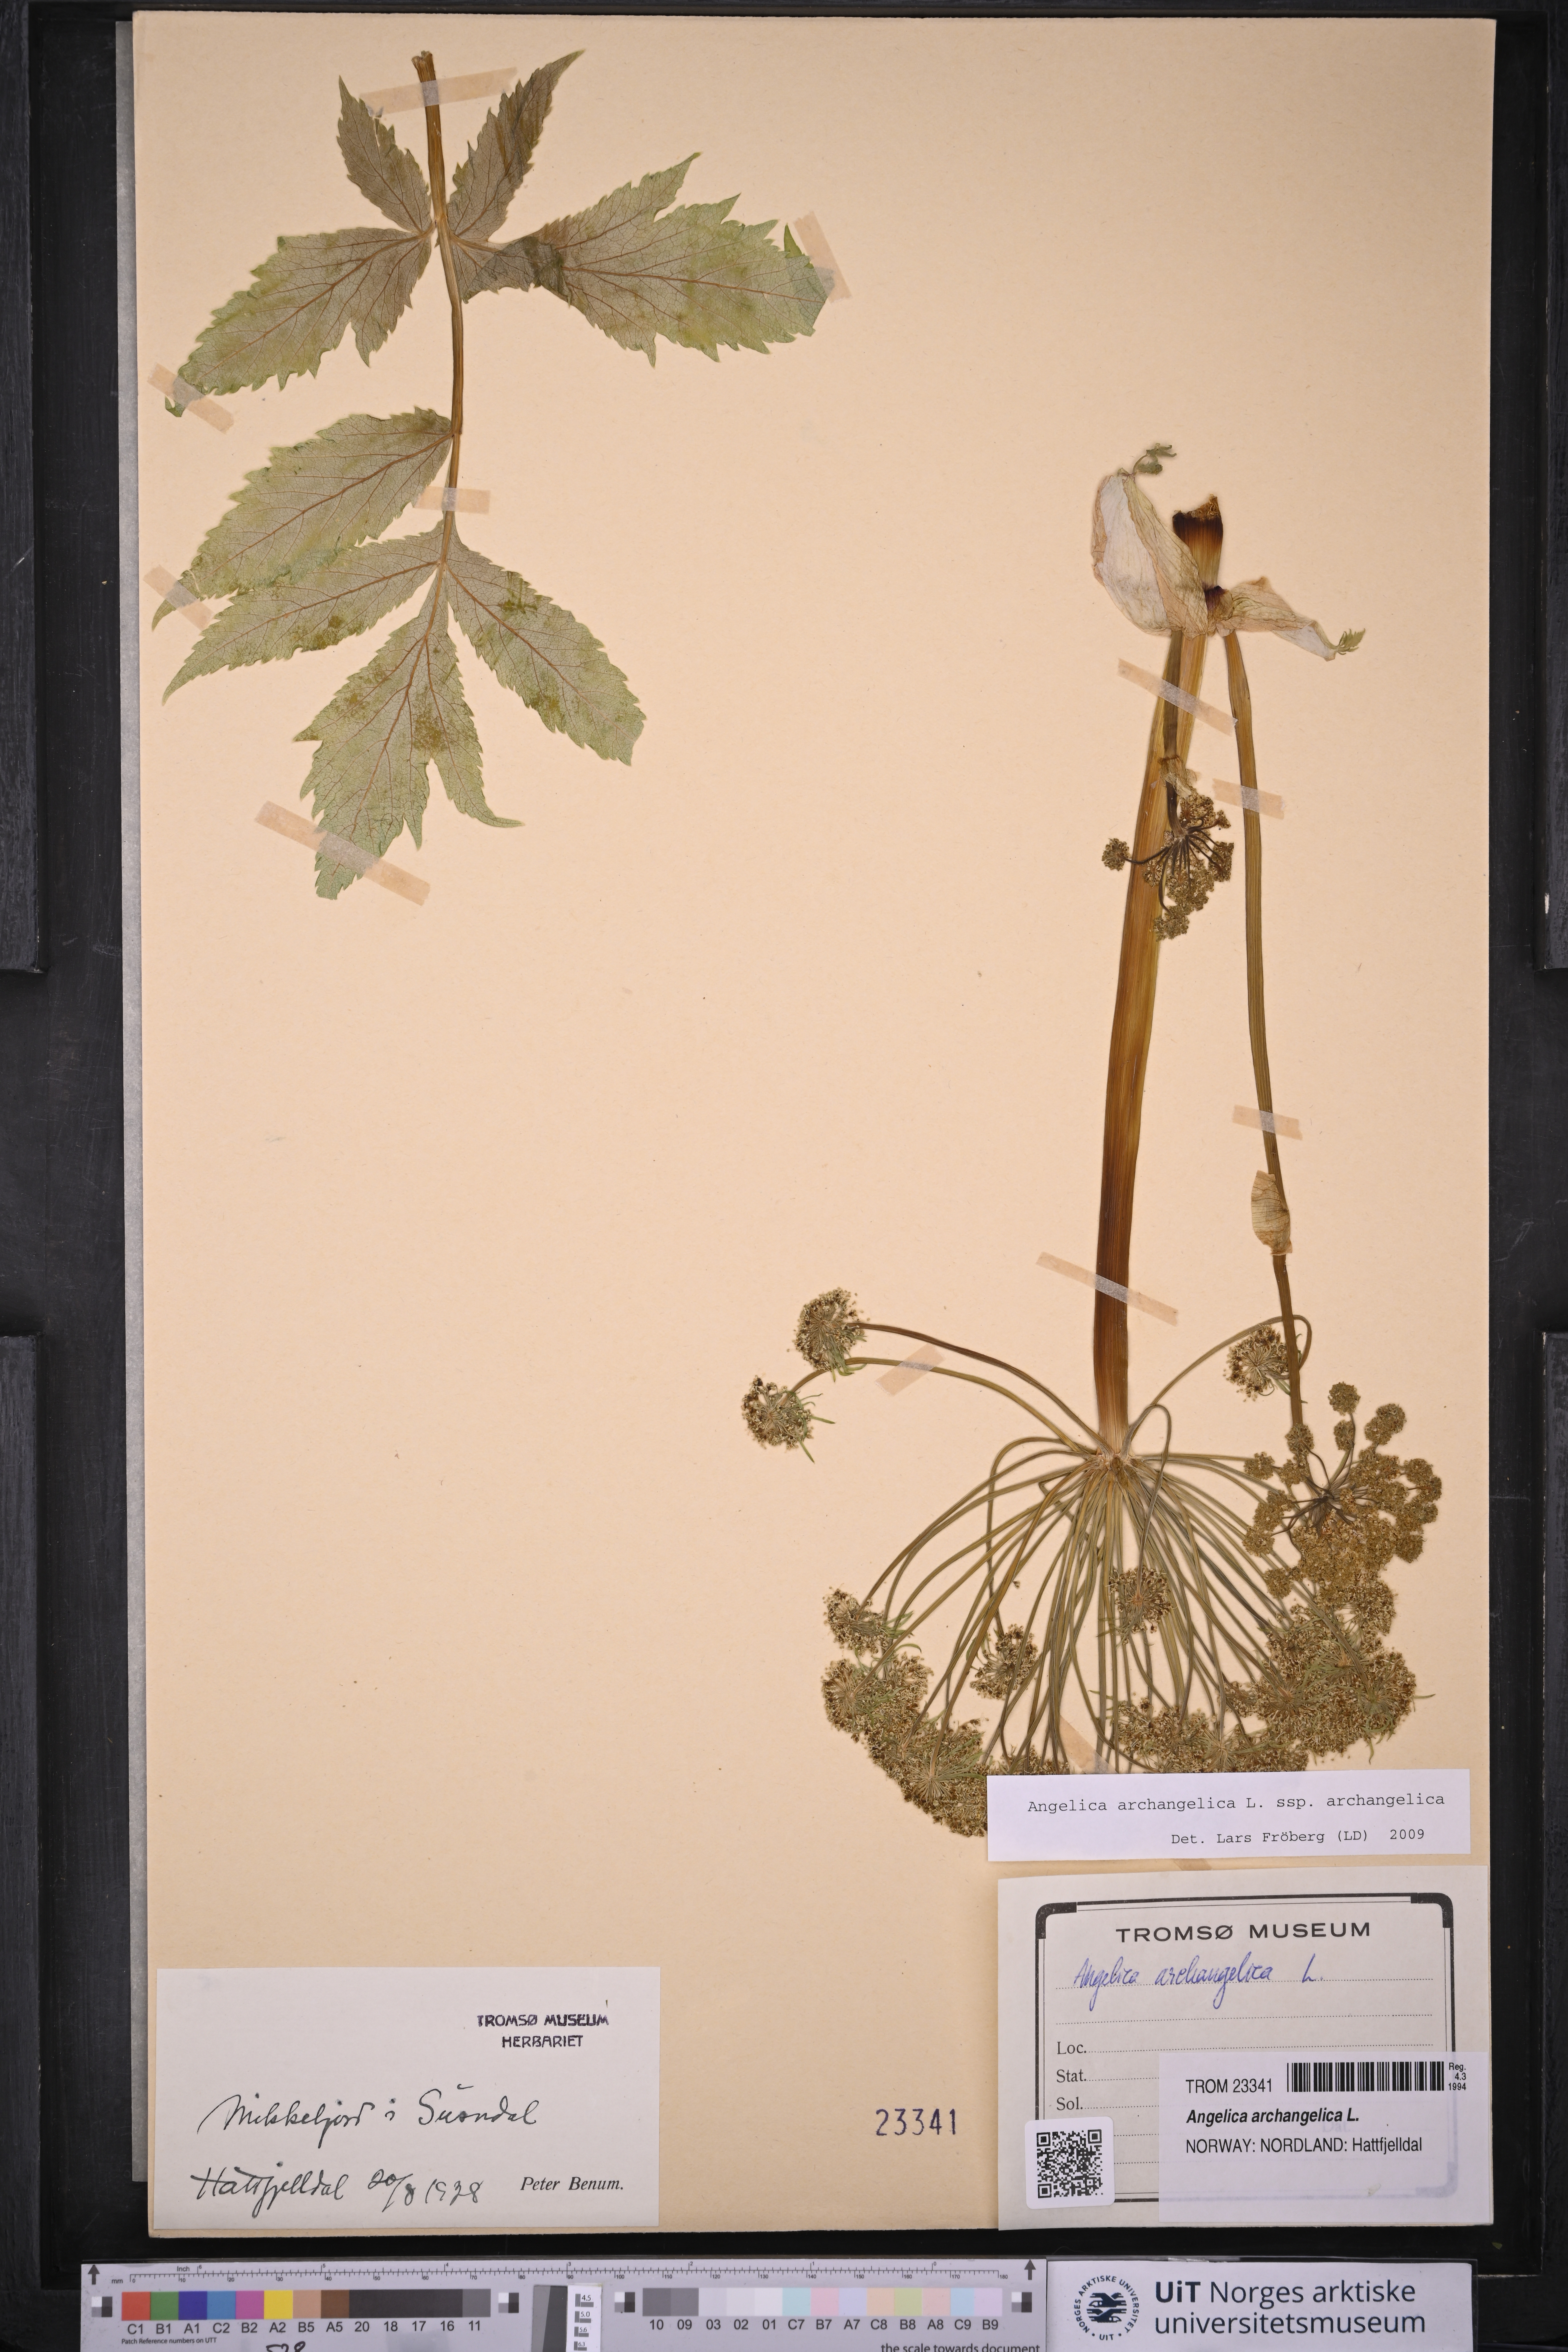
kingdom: Plantae
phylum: Tracheophyta
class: Magnoliopsida
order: Apiales
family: Apiaceae
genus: Angelica
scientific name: Angelica archangelica
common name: Garden angelica
